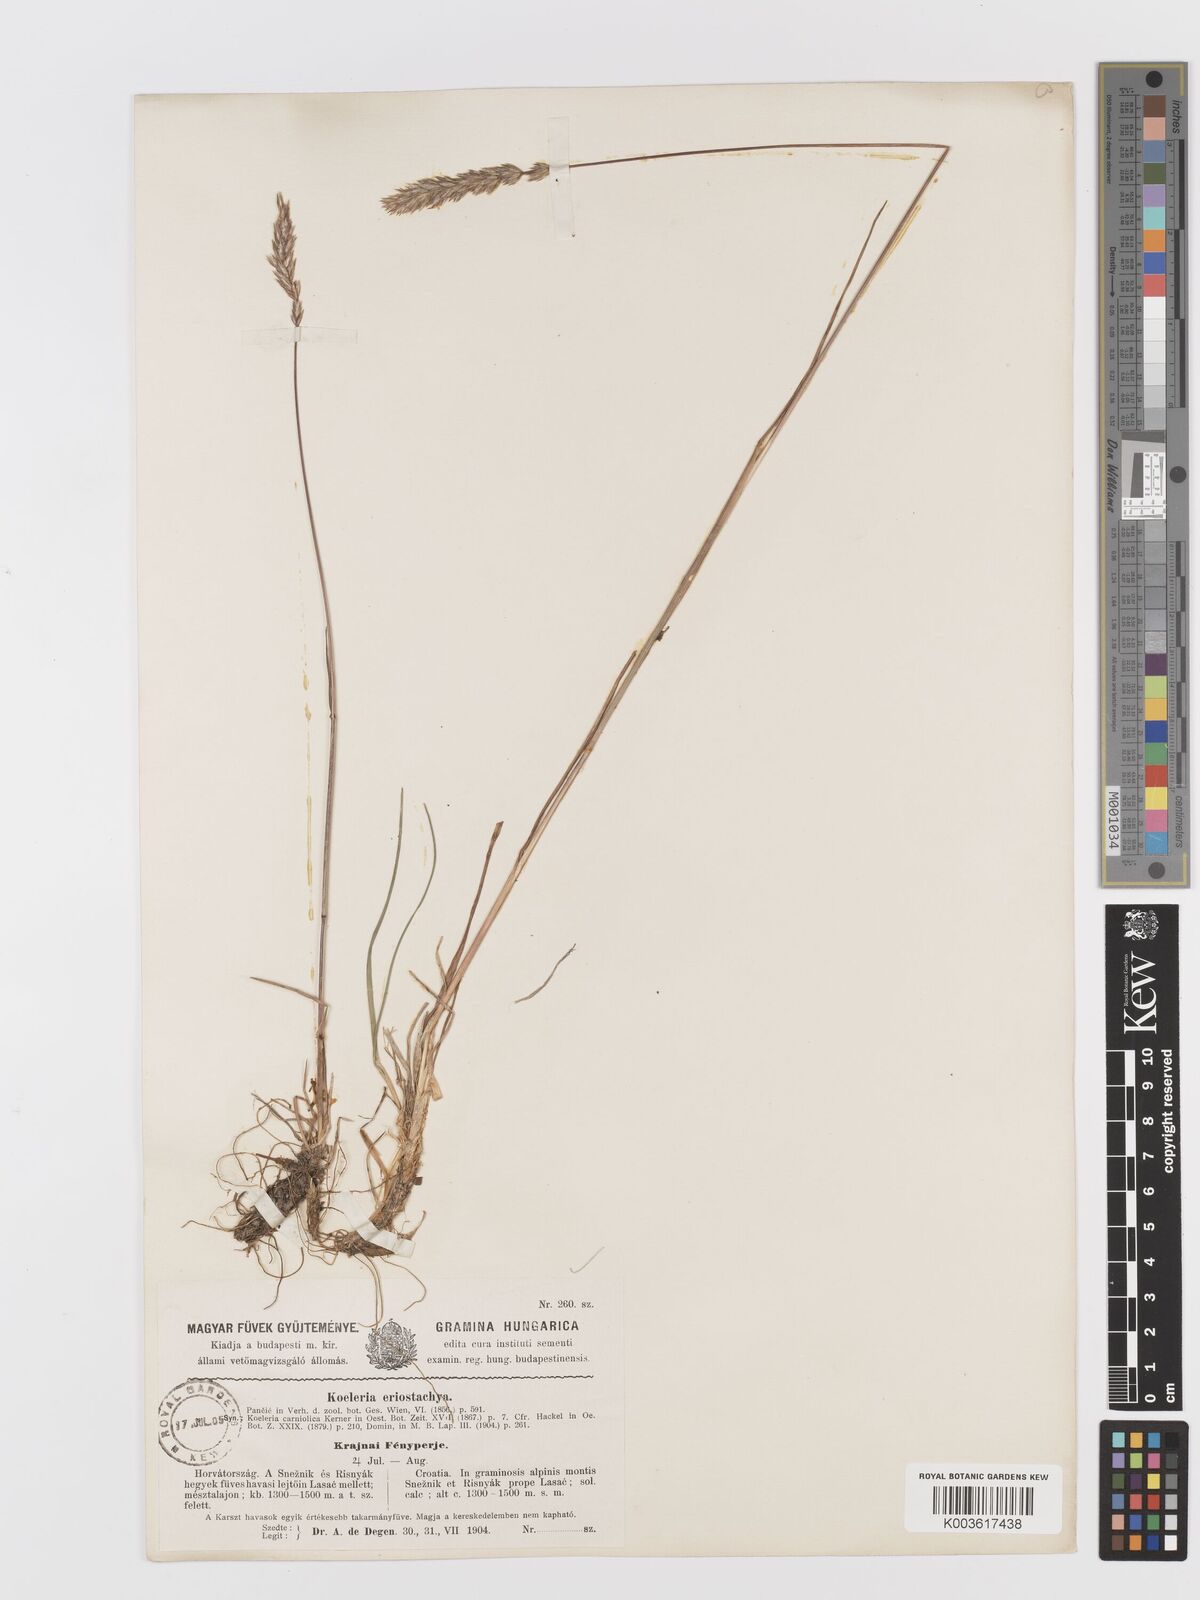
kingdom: Plantae
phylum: Tracheophyta
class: Liliopsida
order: Poales
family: Poaceae
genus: Koeleria
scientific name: Koeleria eriostachya
